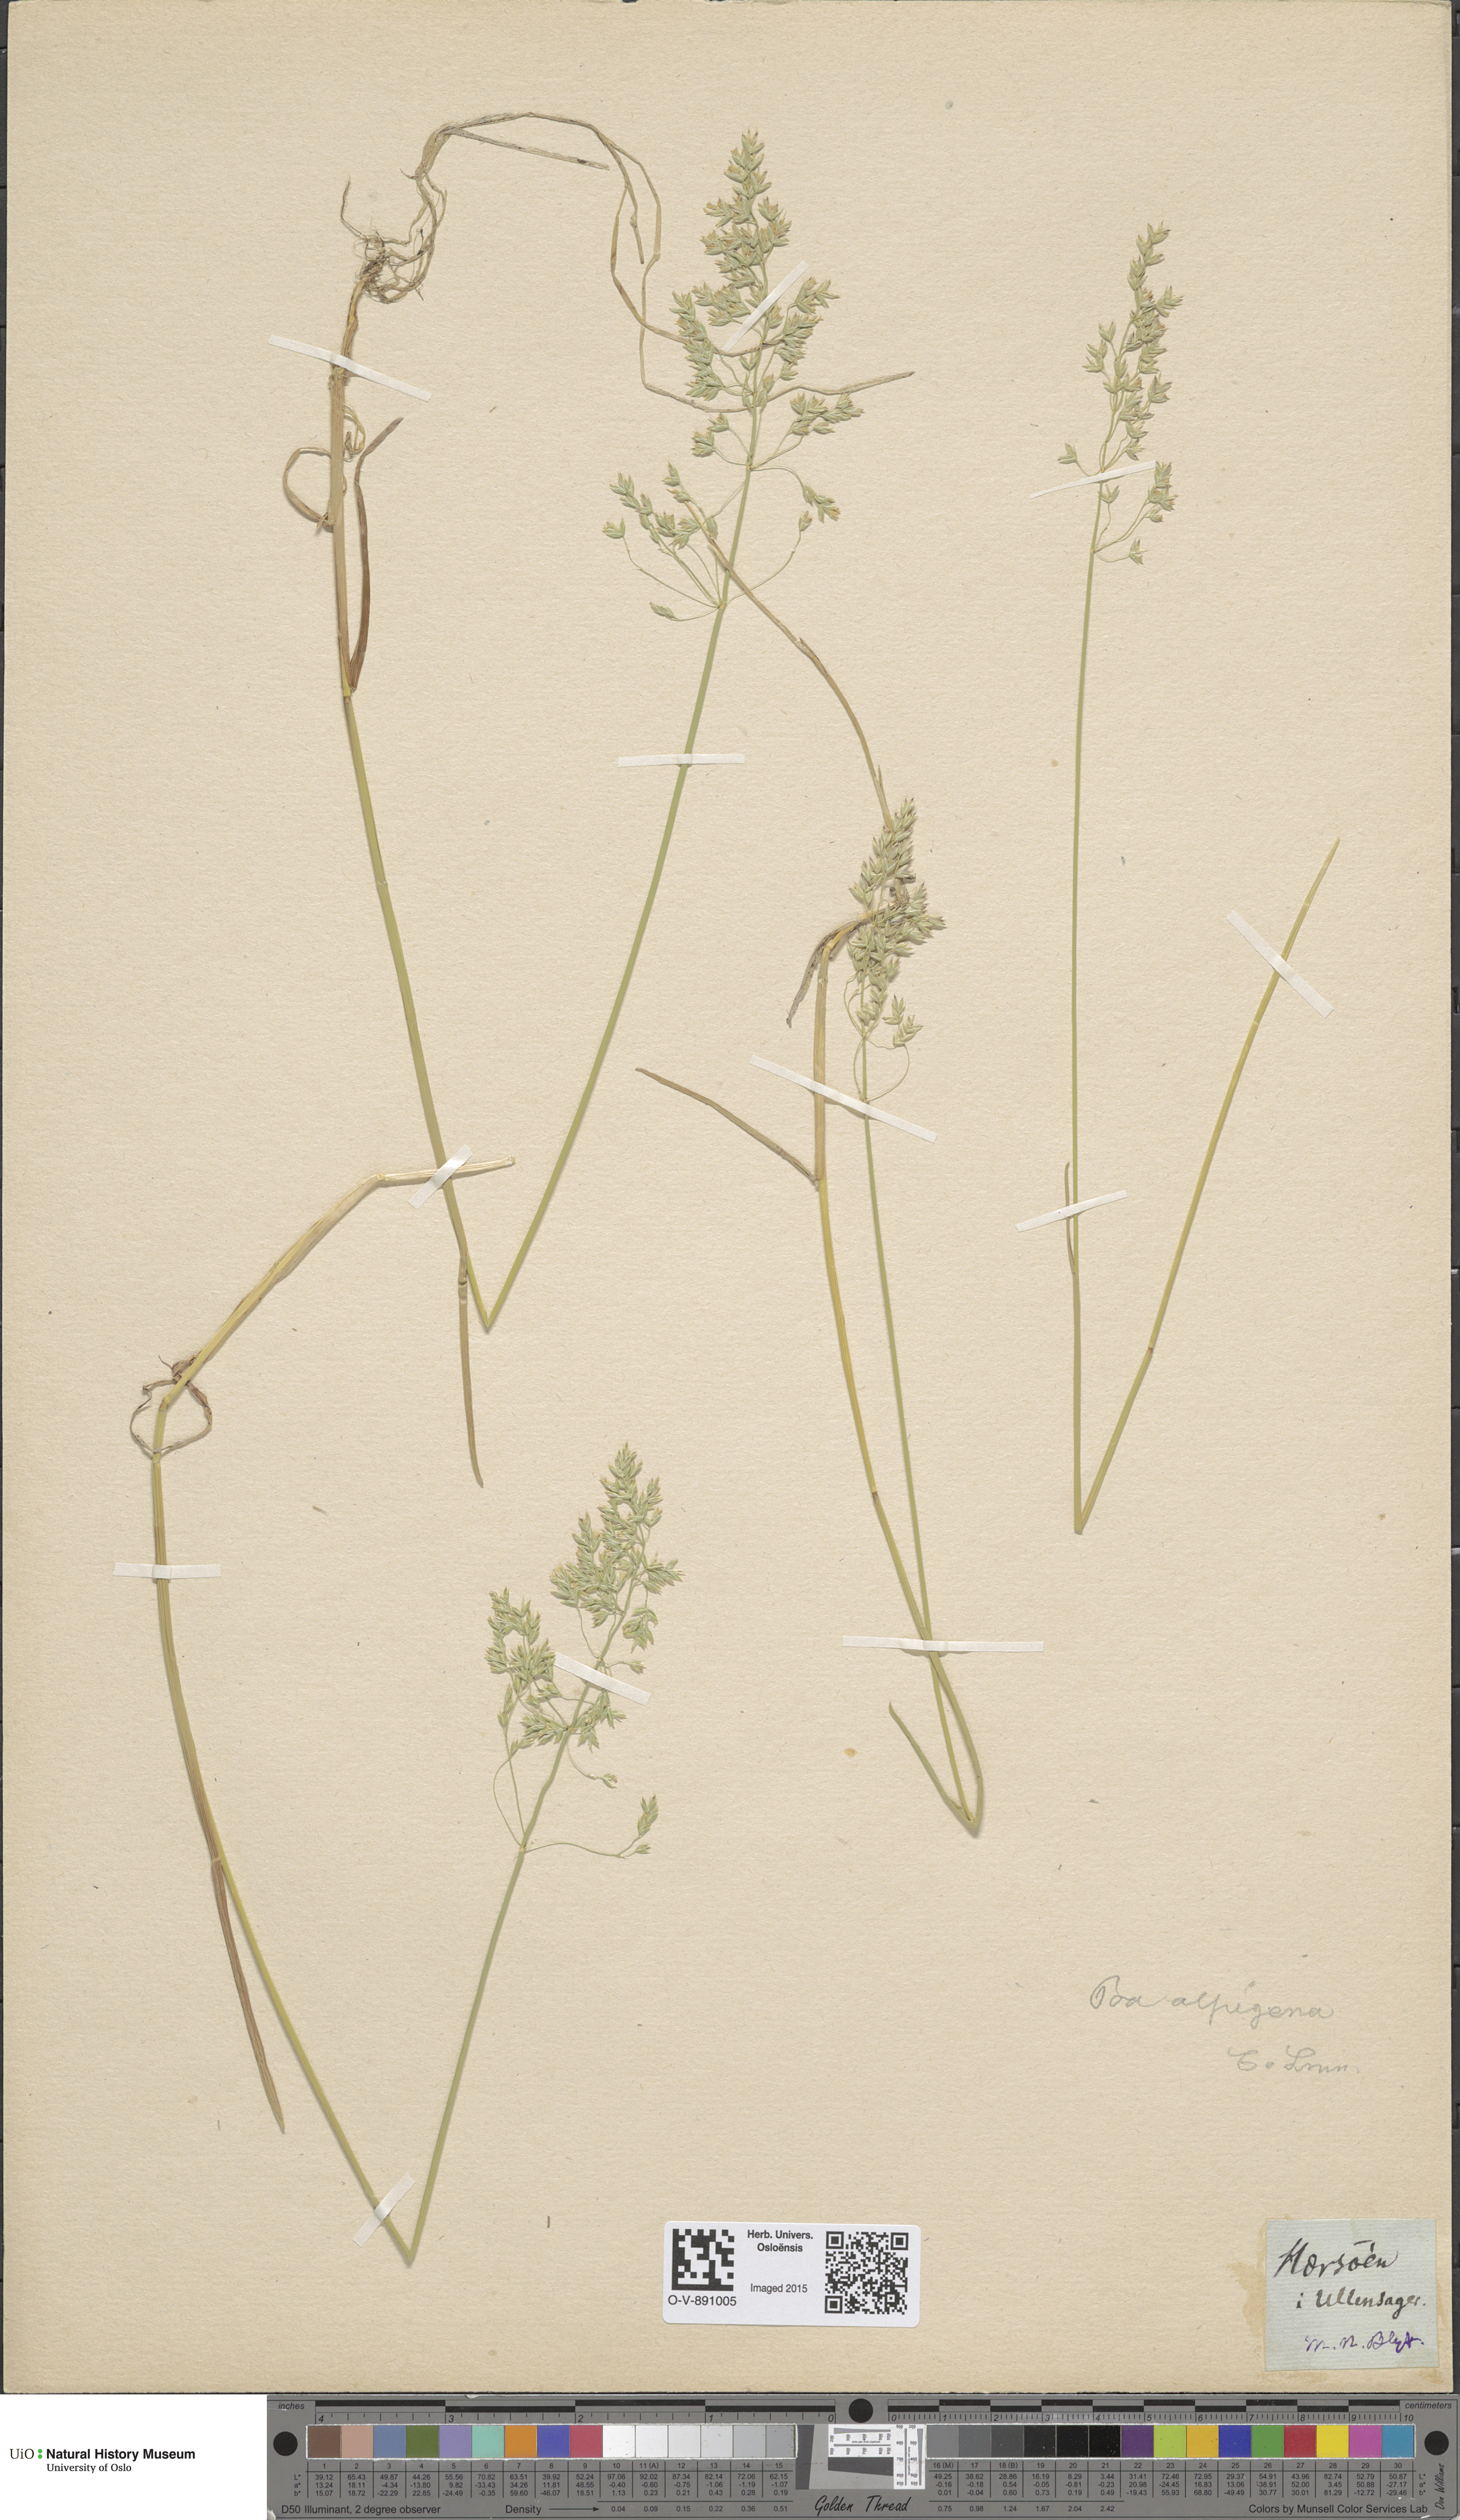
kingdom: Plantae
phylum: Tracheophyta
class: Liliopsida
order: Poales
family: Poaceae
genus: Poa
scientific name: Poa alpigena
